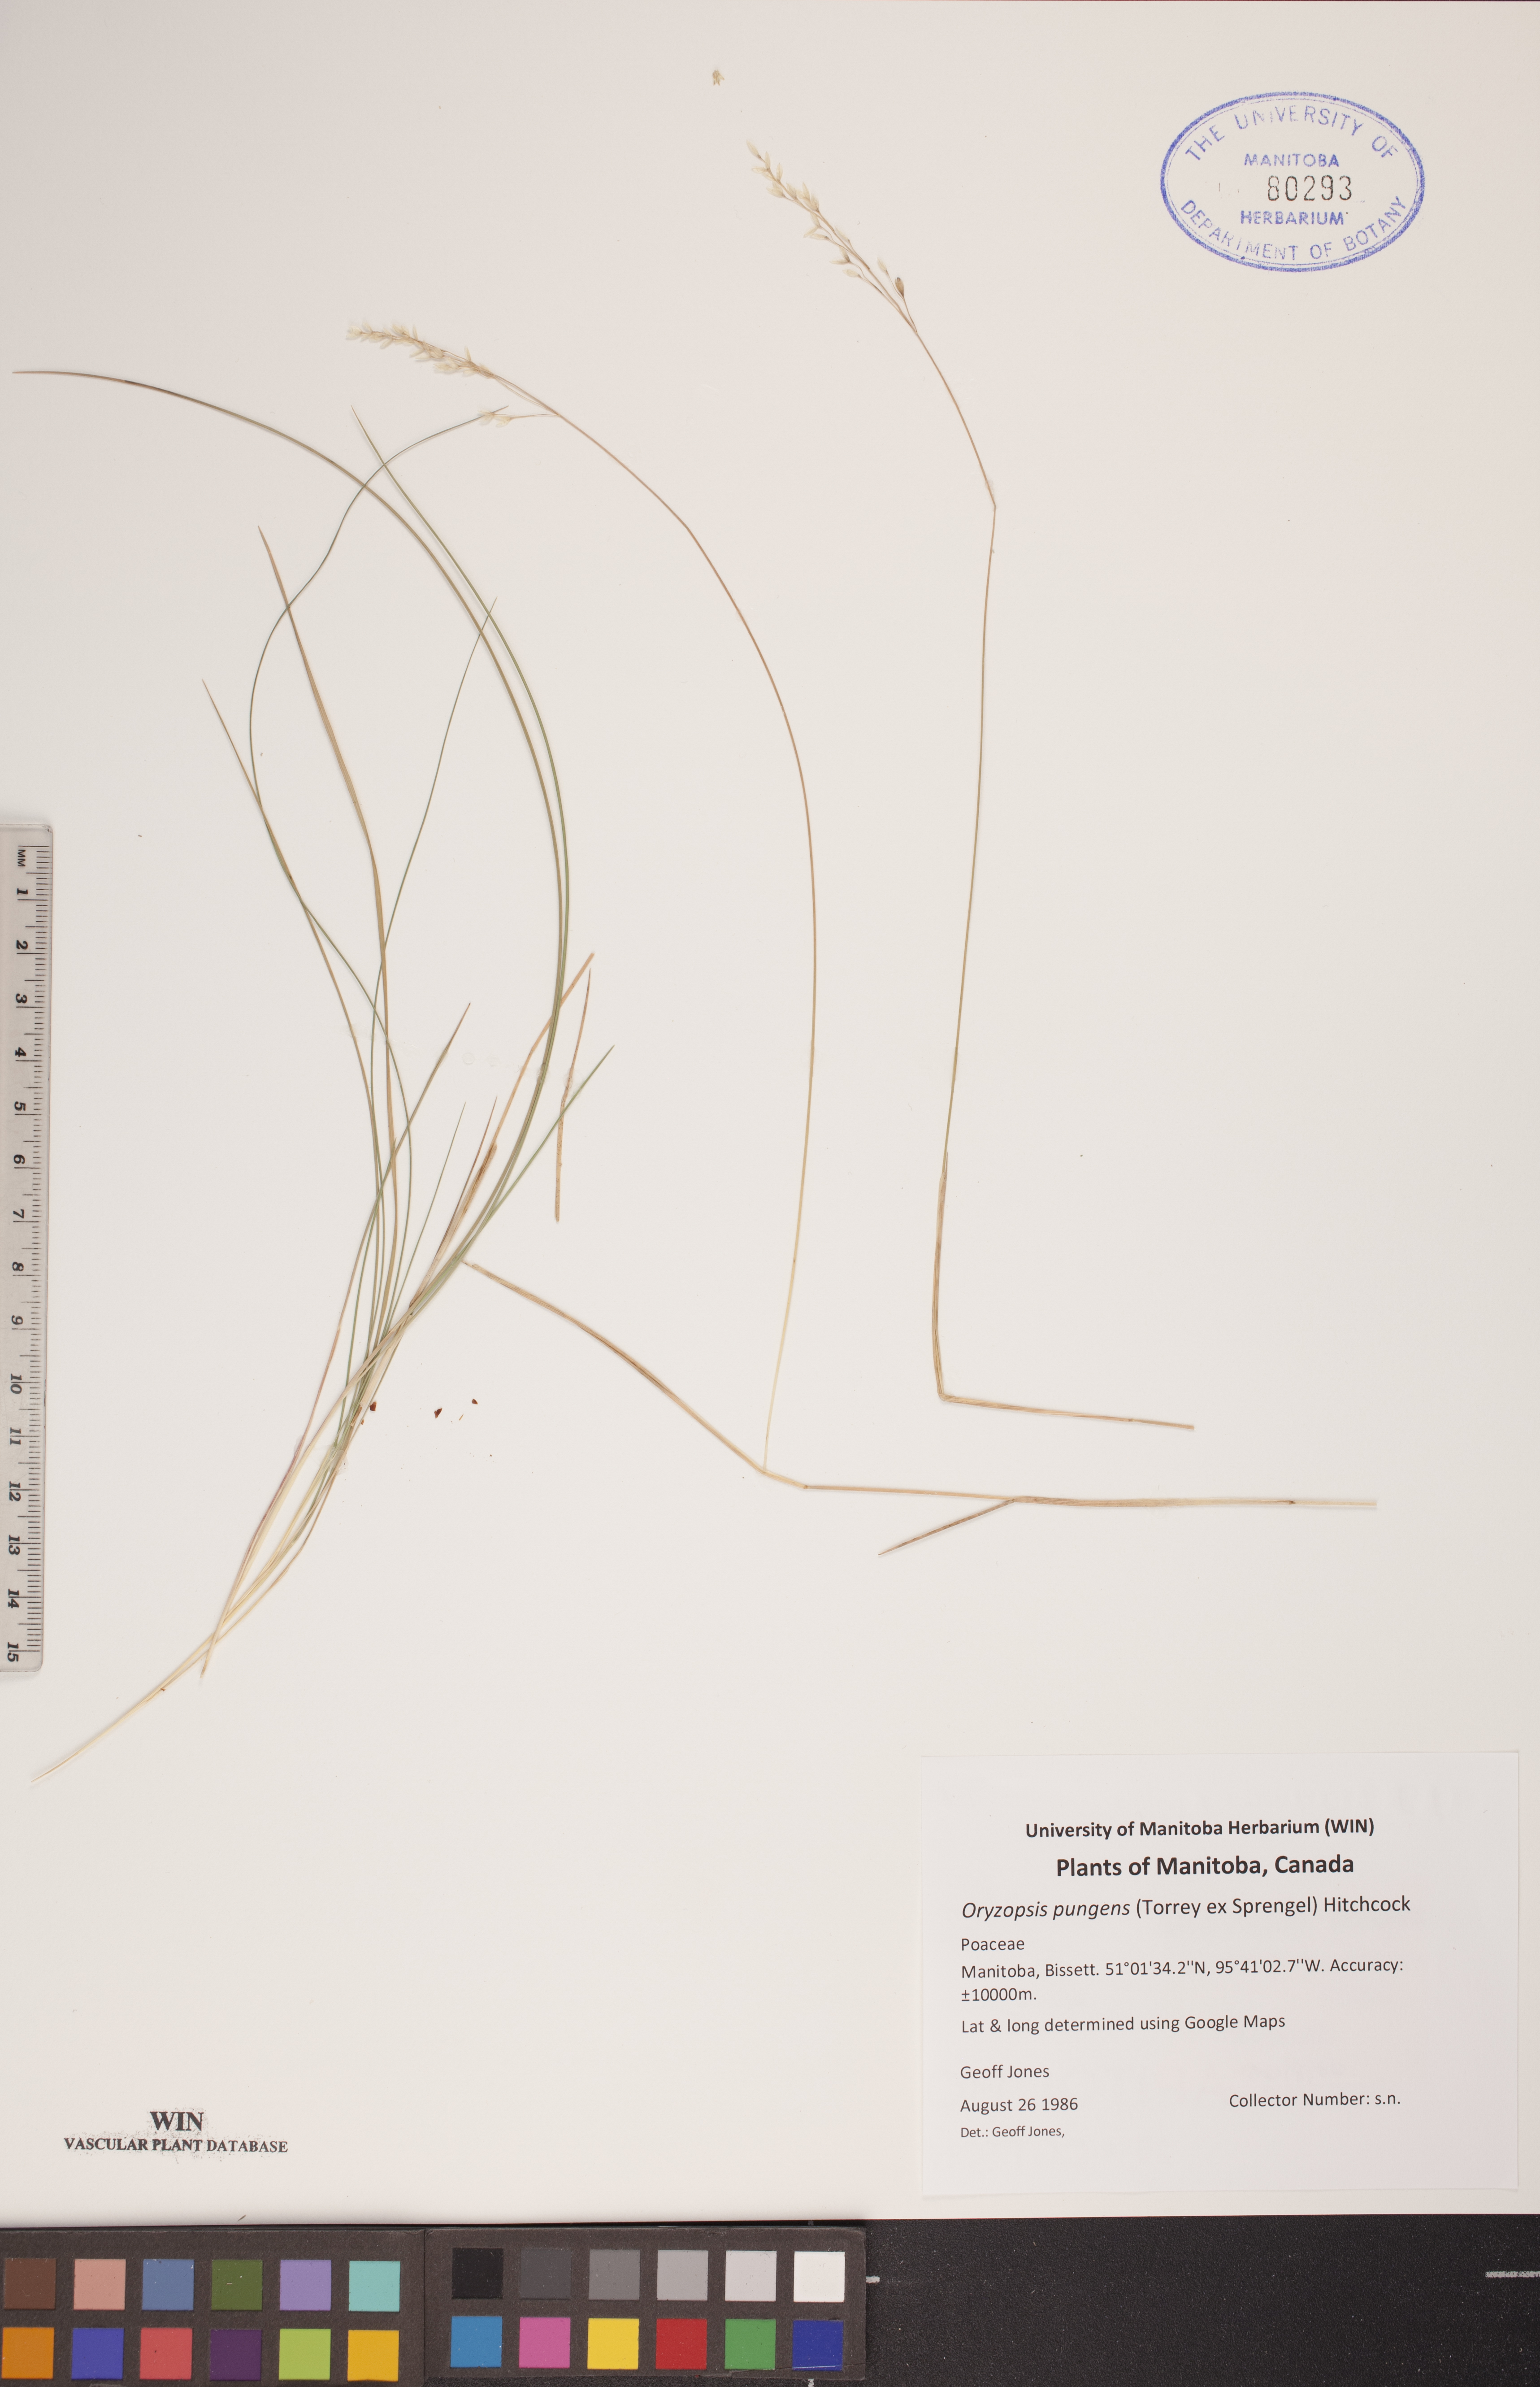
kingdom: Plantae
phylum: Tracheophyta
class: Liliopsida
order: Poales
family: Poaceae
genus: Piptatheropsis
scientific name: Piptatheropsis pungens
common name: Northern ricegrass
